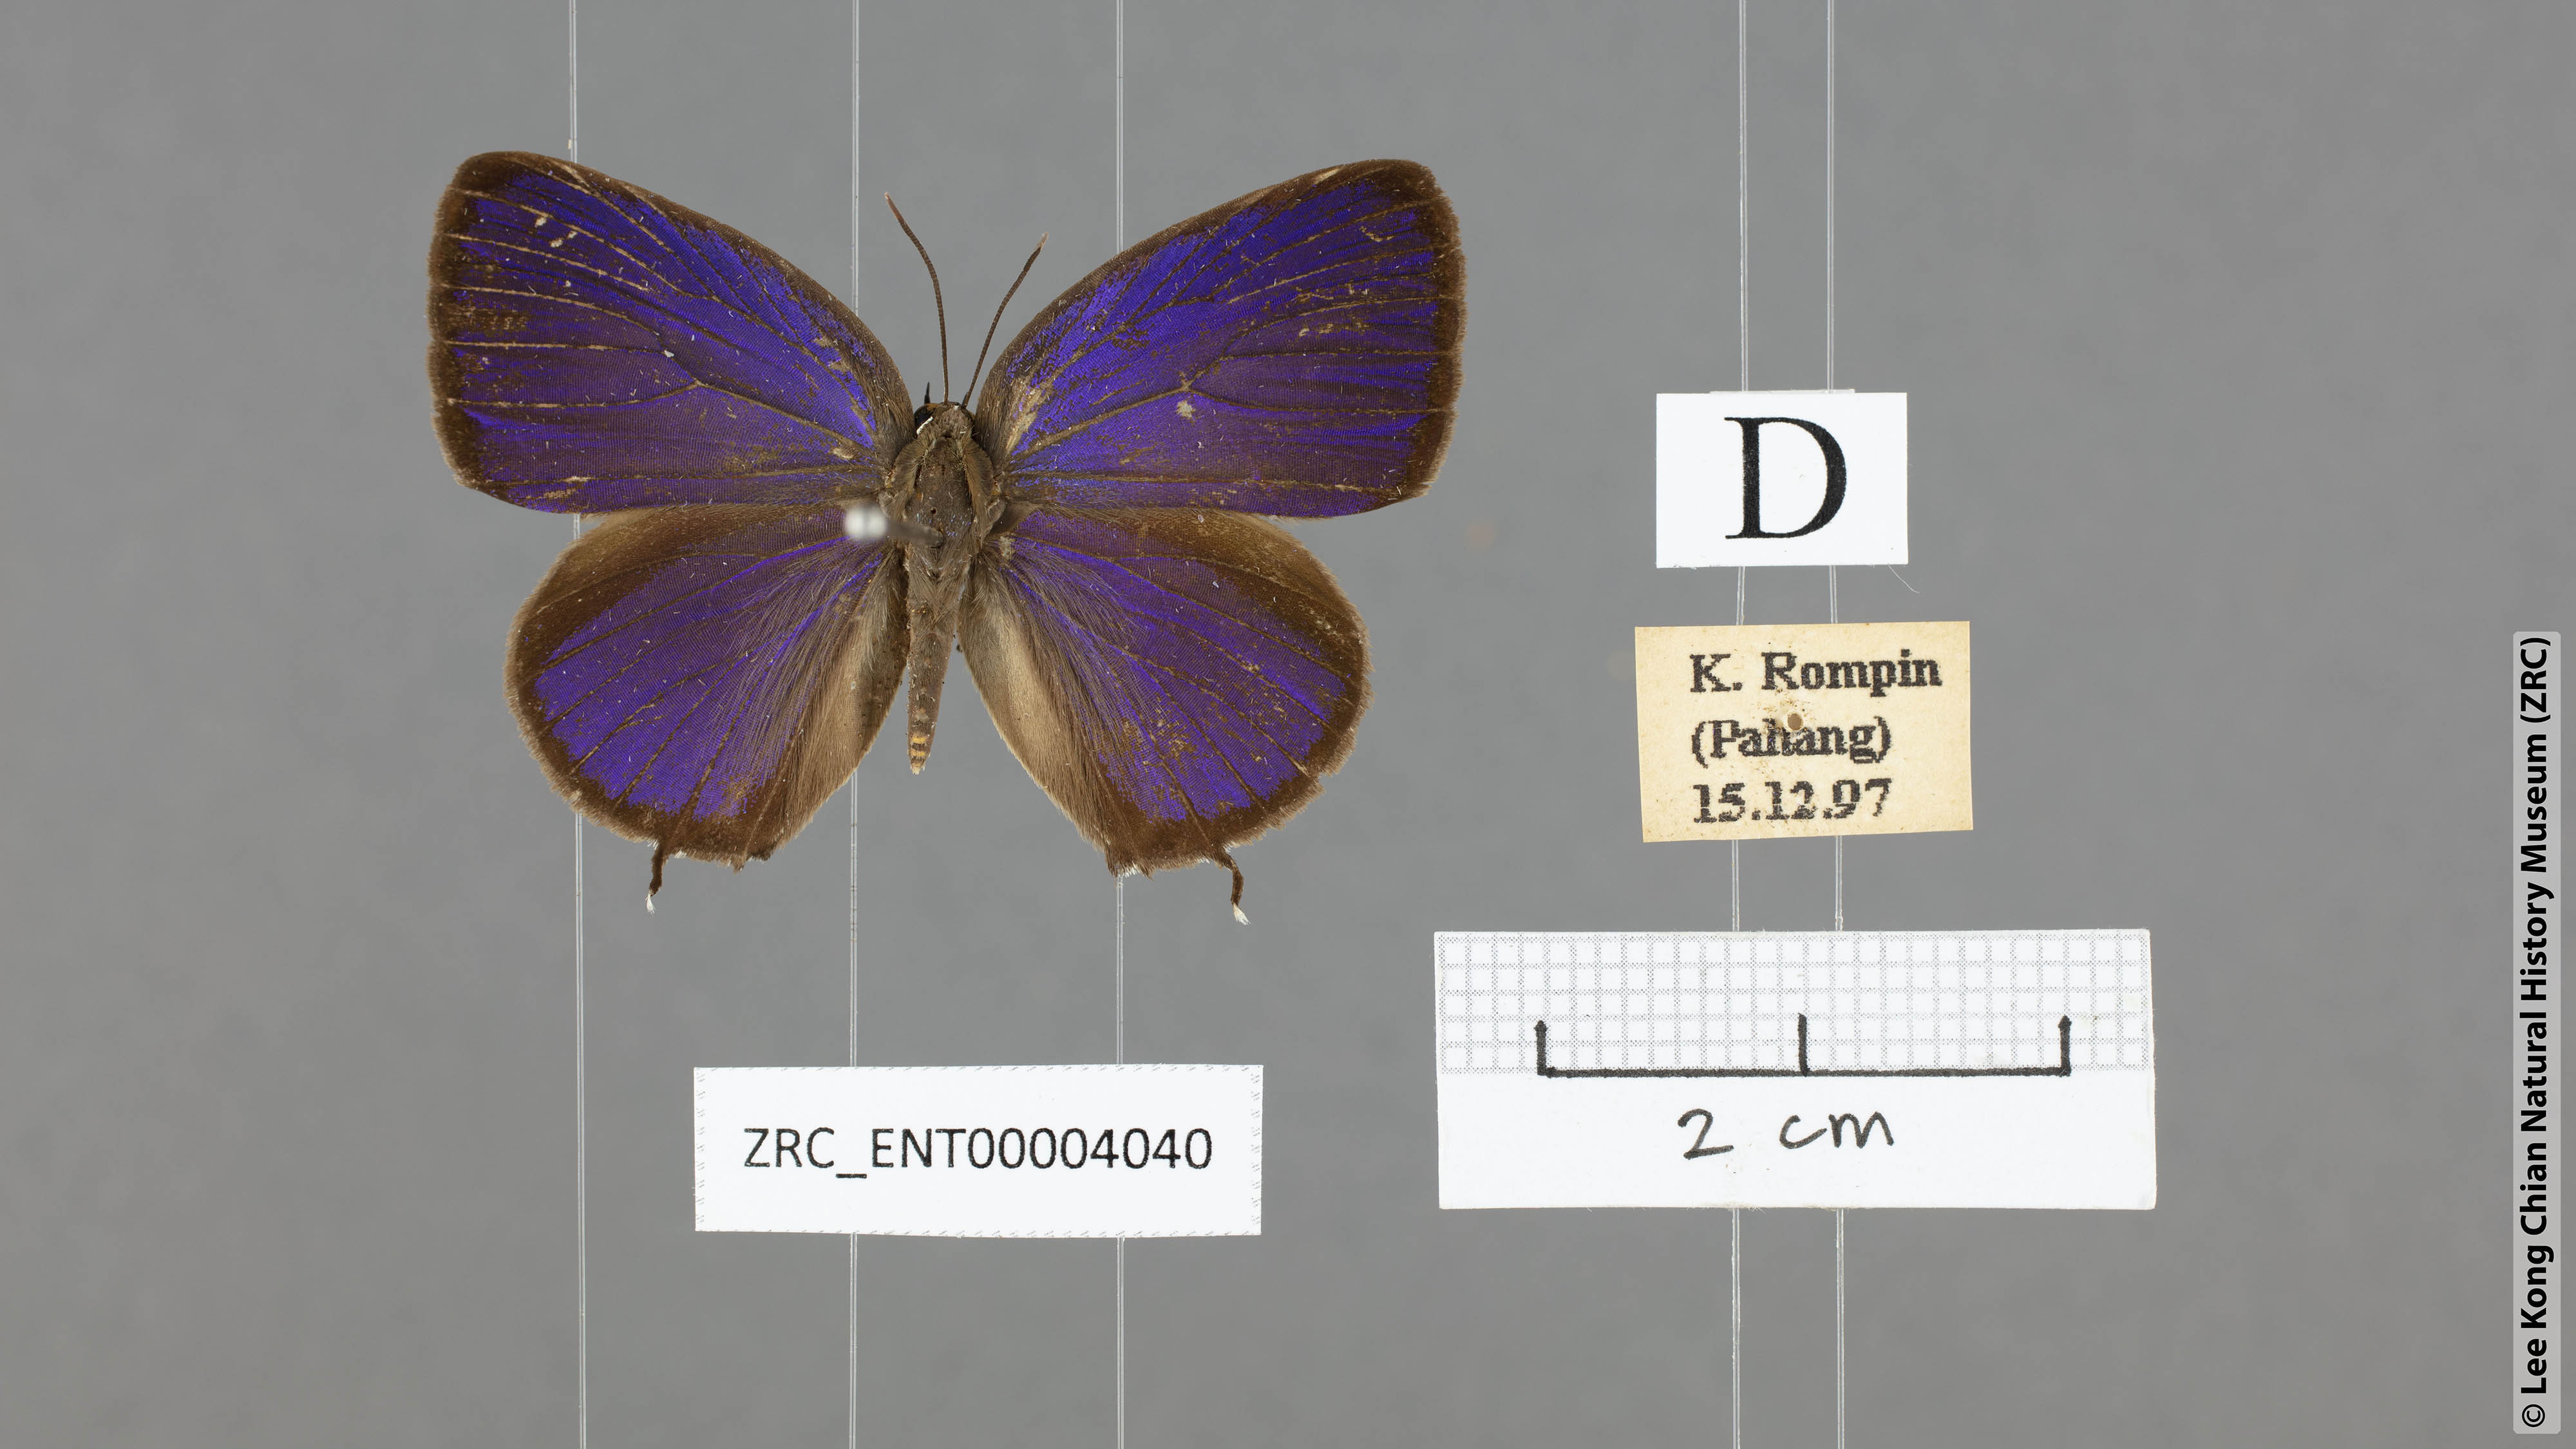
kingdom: Animalia
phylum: Arthropoda
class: Insecta
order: Lepidoptera
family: Lycaenidae
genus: Arhopala
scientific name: Arhopala pseudomuta
